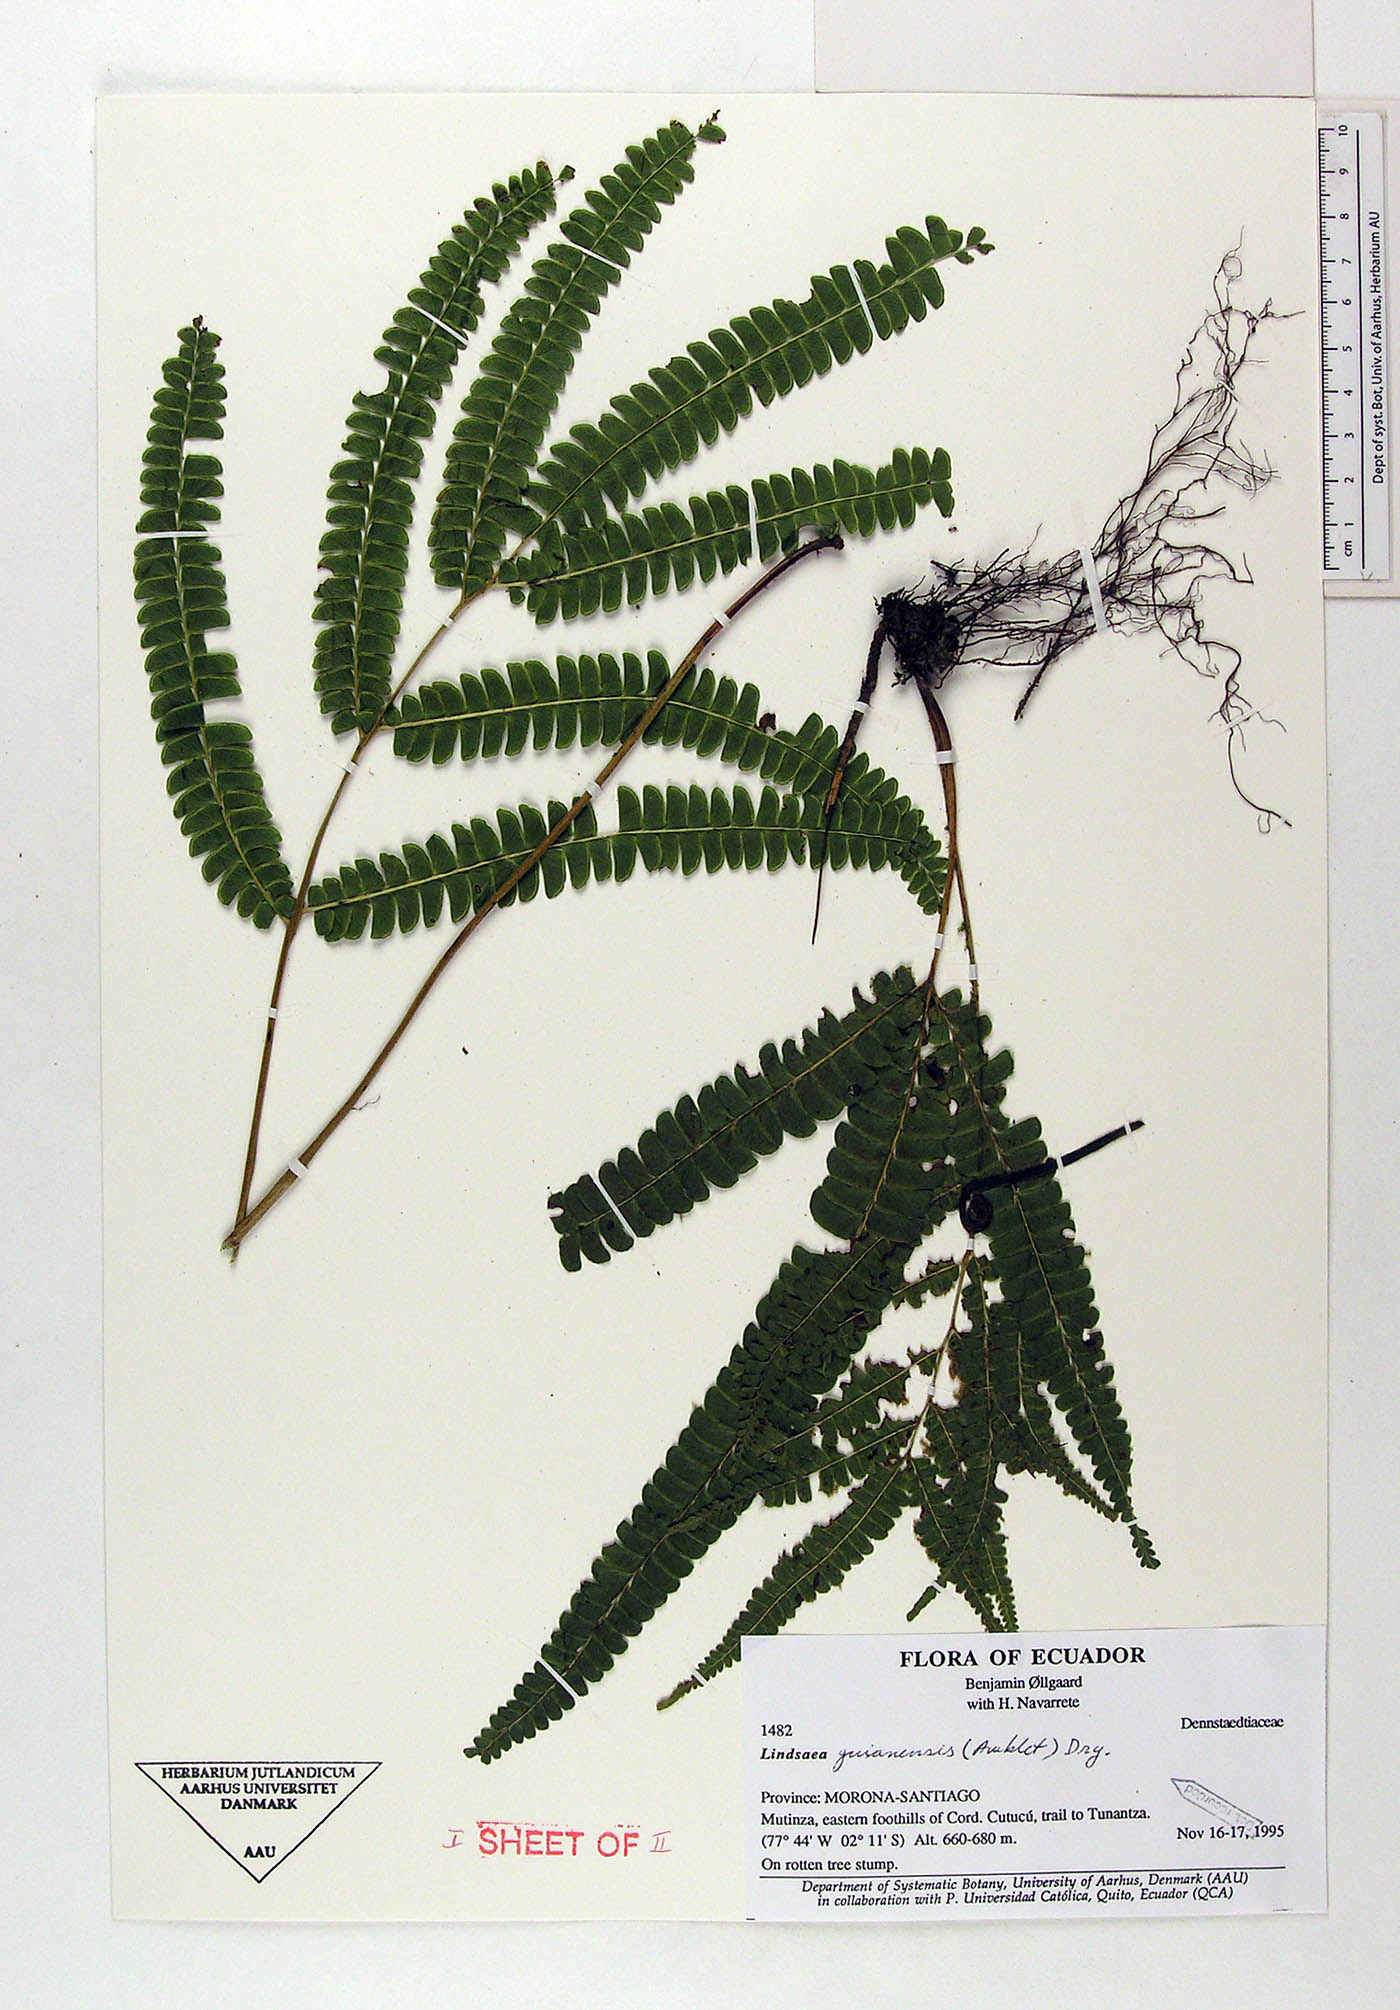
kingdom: Plantae
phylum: Tracheophyta
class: Polypodiopsida
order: Polypodiales
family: Lindsaeaceae
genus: Lindsaea
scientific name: Lindsaea guianensis
